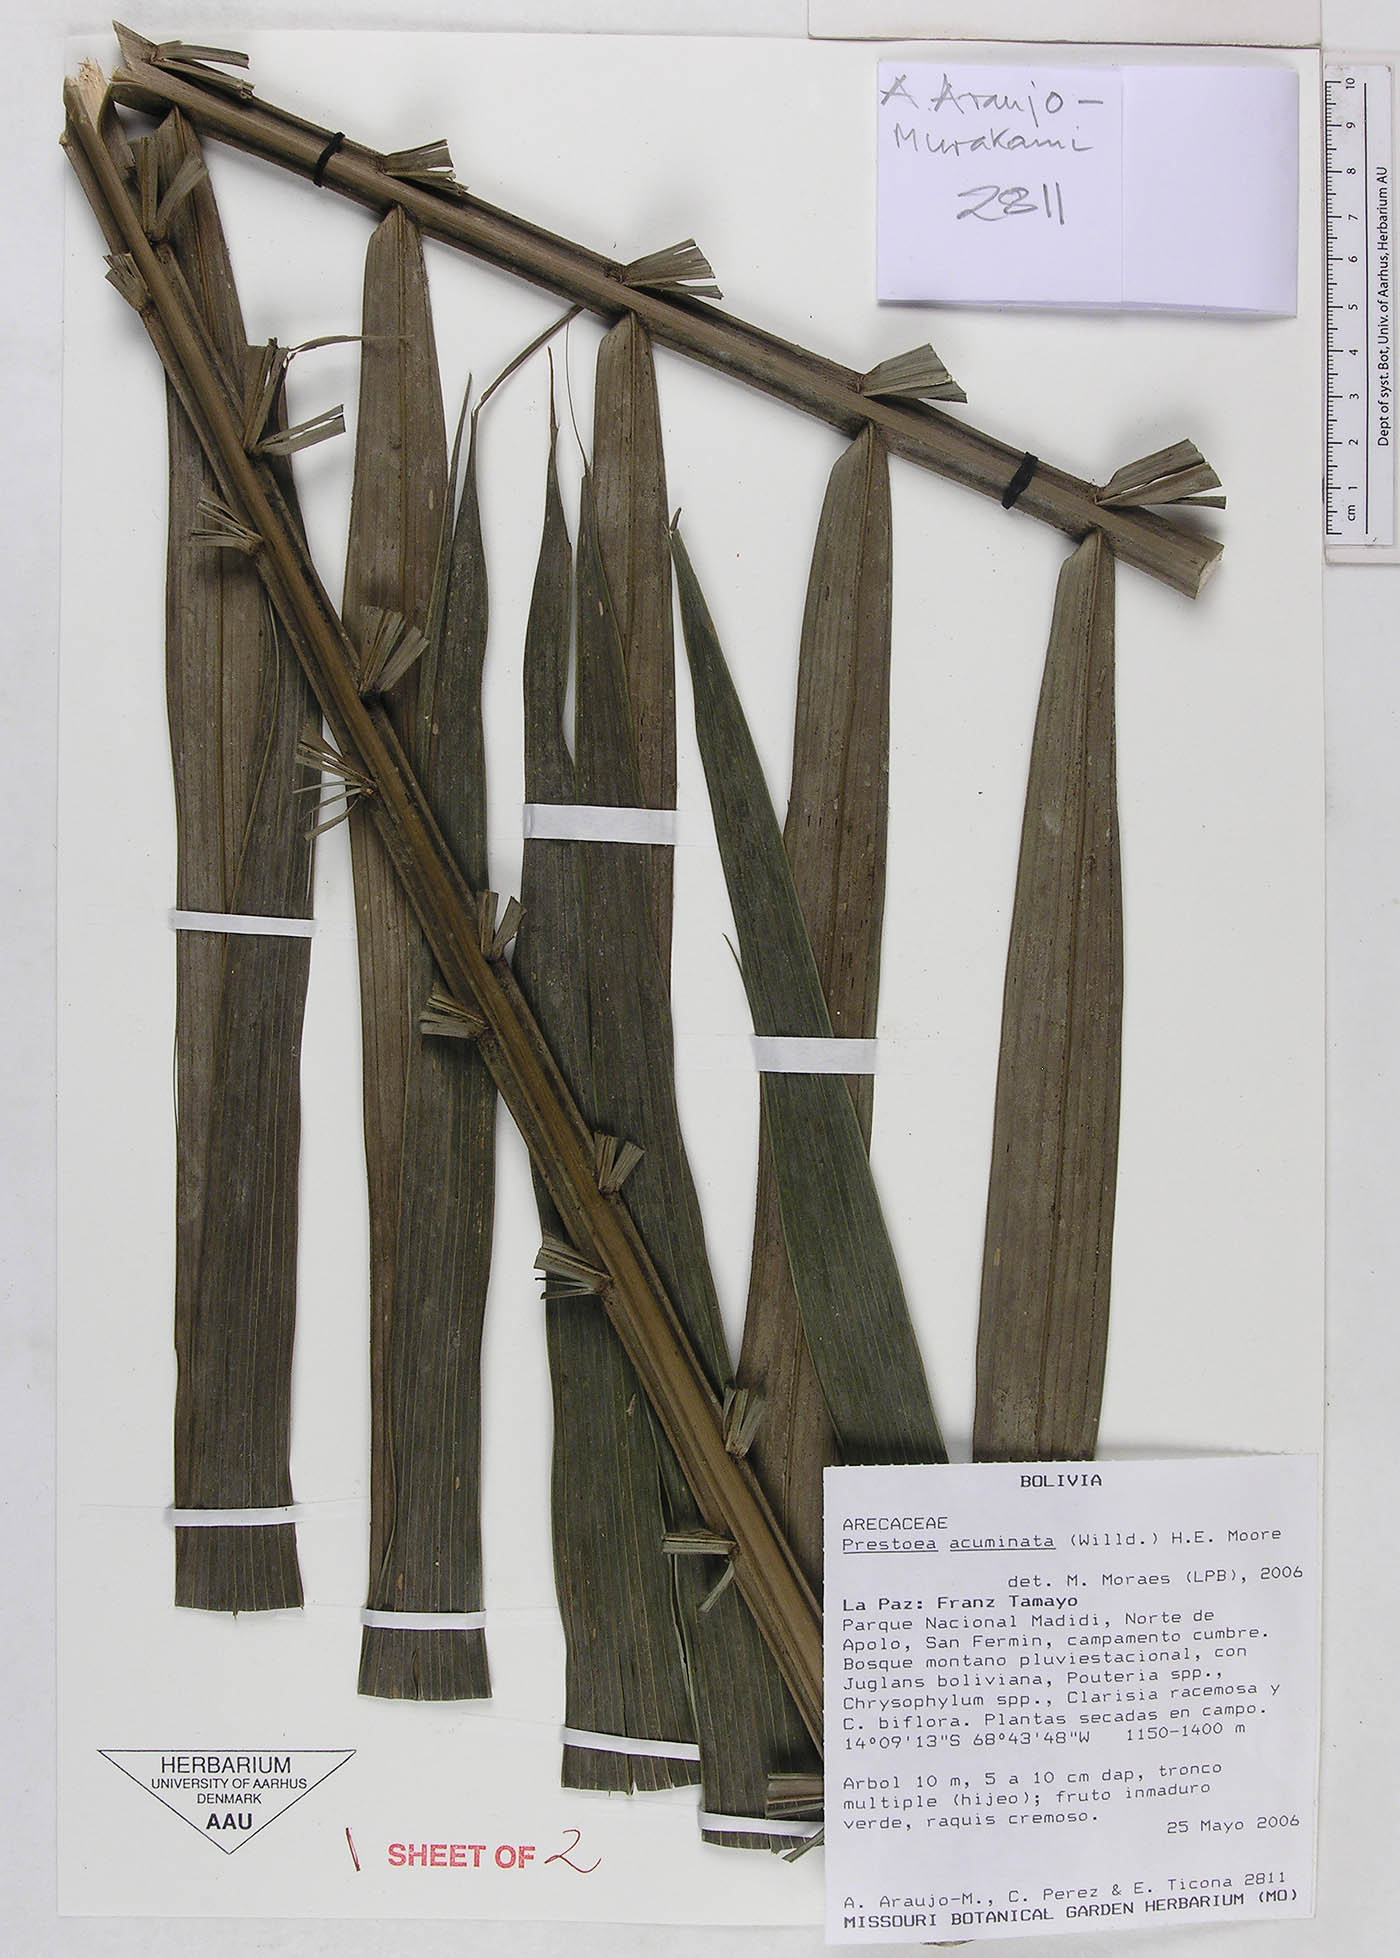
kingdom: Plantae
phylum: Tracheophyta
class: Liliopsida
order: Arecales
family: Arecaceae
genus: Prestoea
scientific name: Prestoea acuminata
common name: Sierran palm
